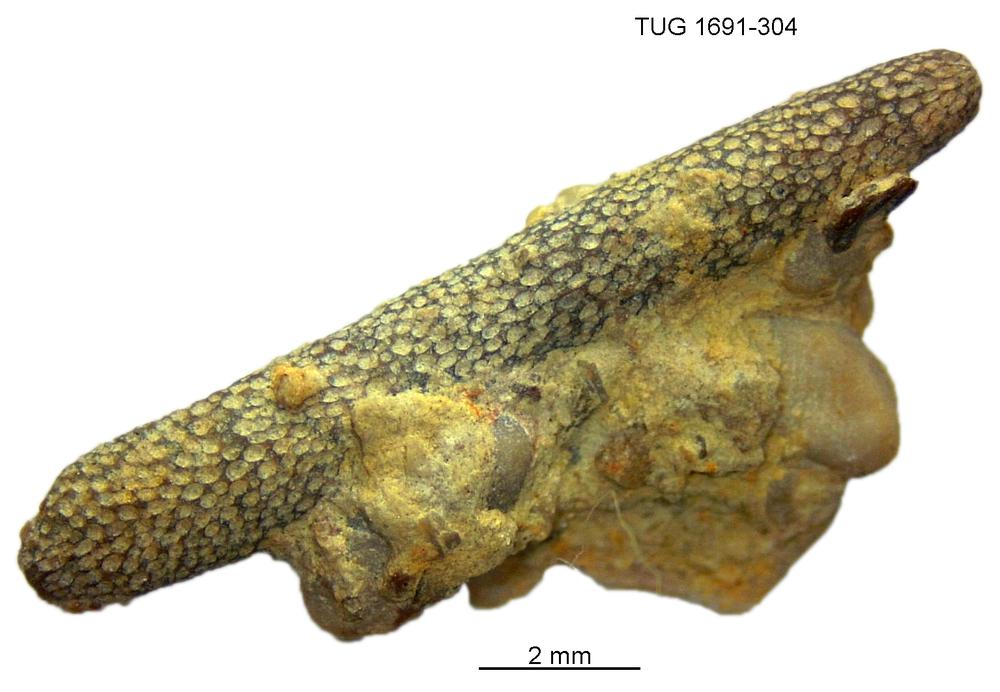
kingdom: Animalia
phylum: Bryozoa
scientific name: Bryozoa
